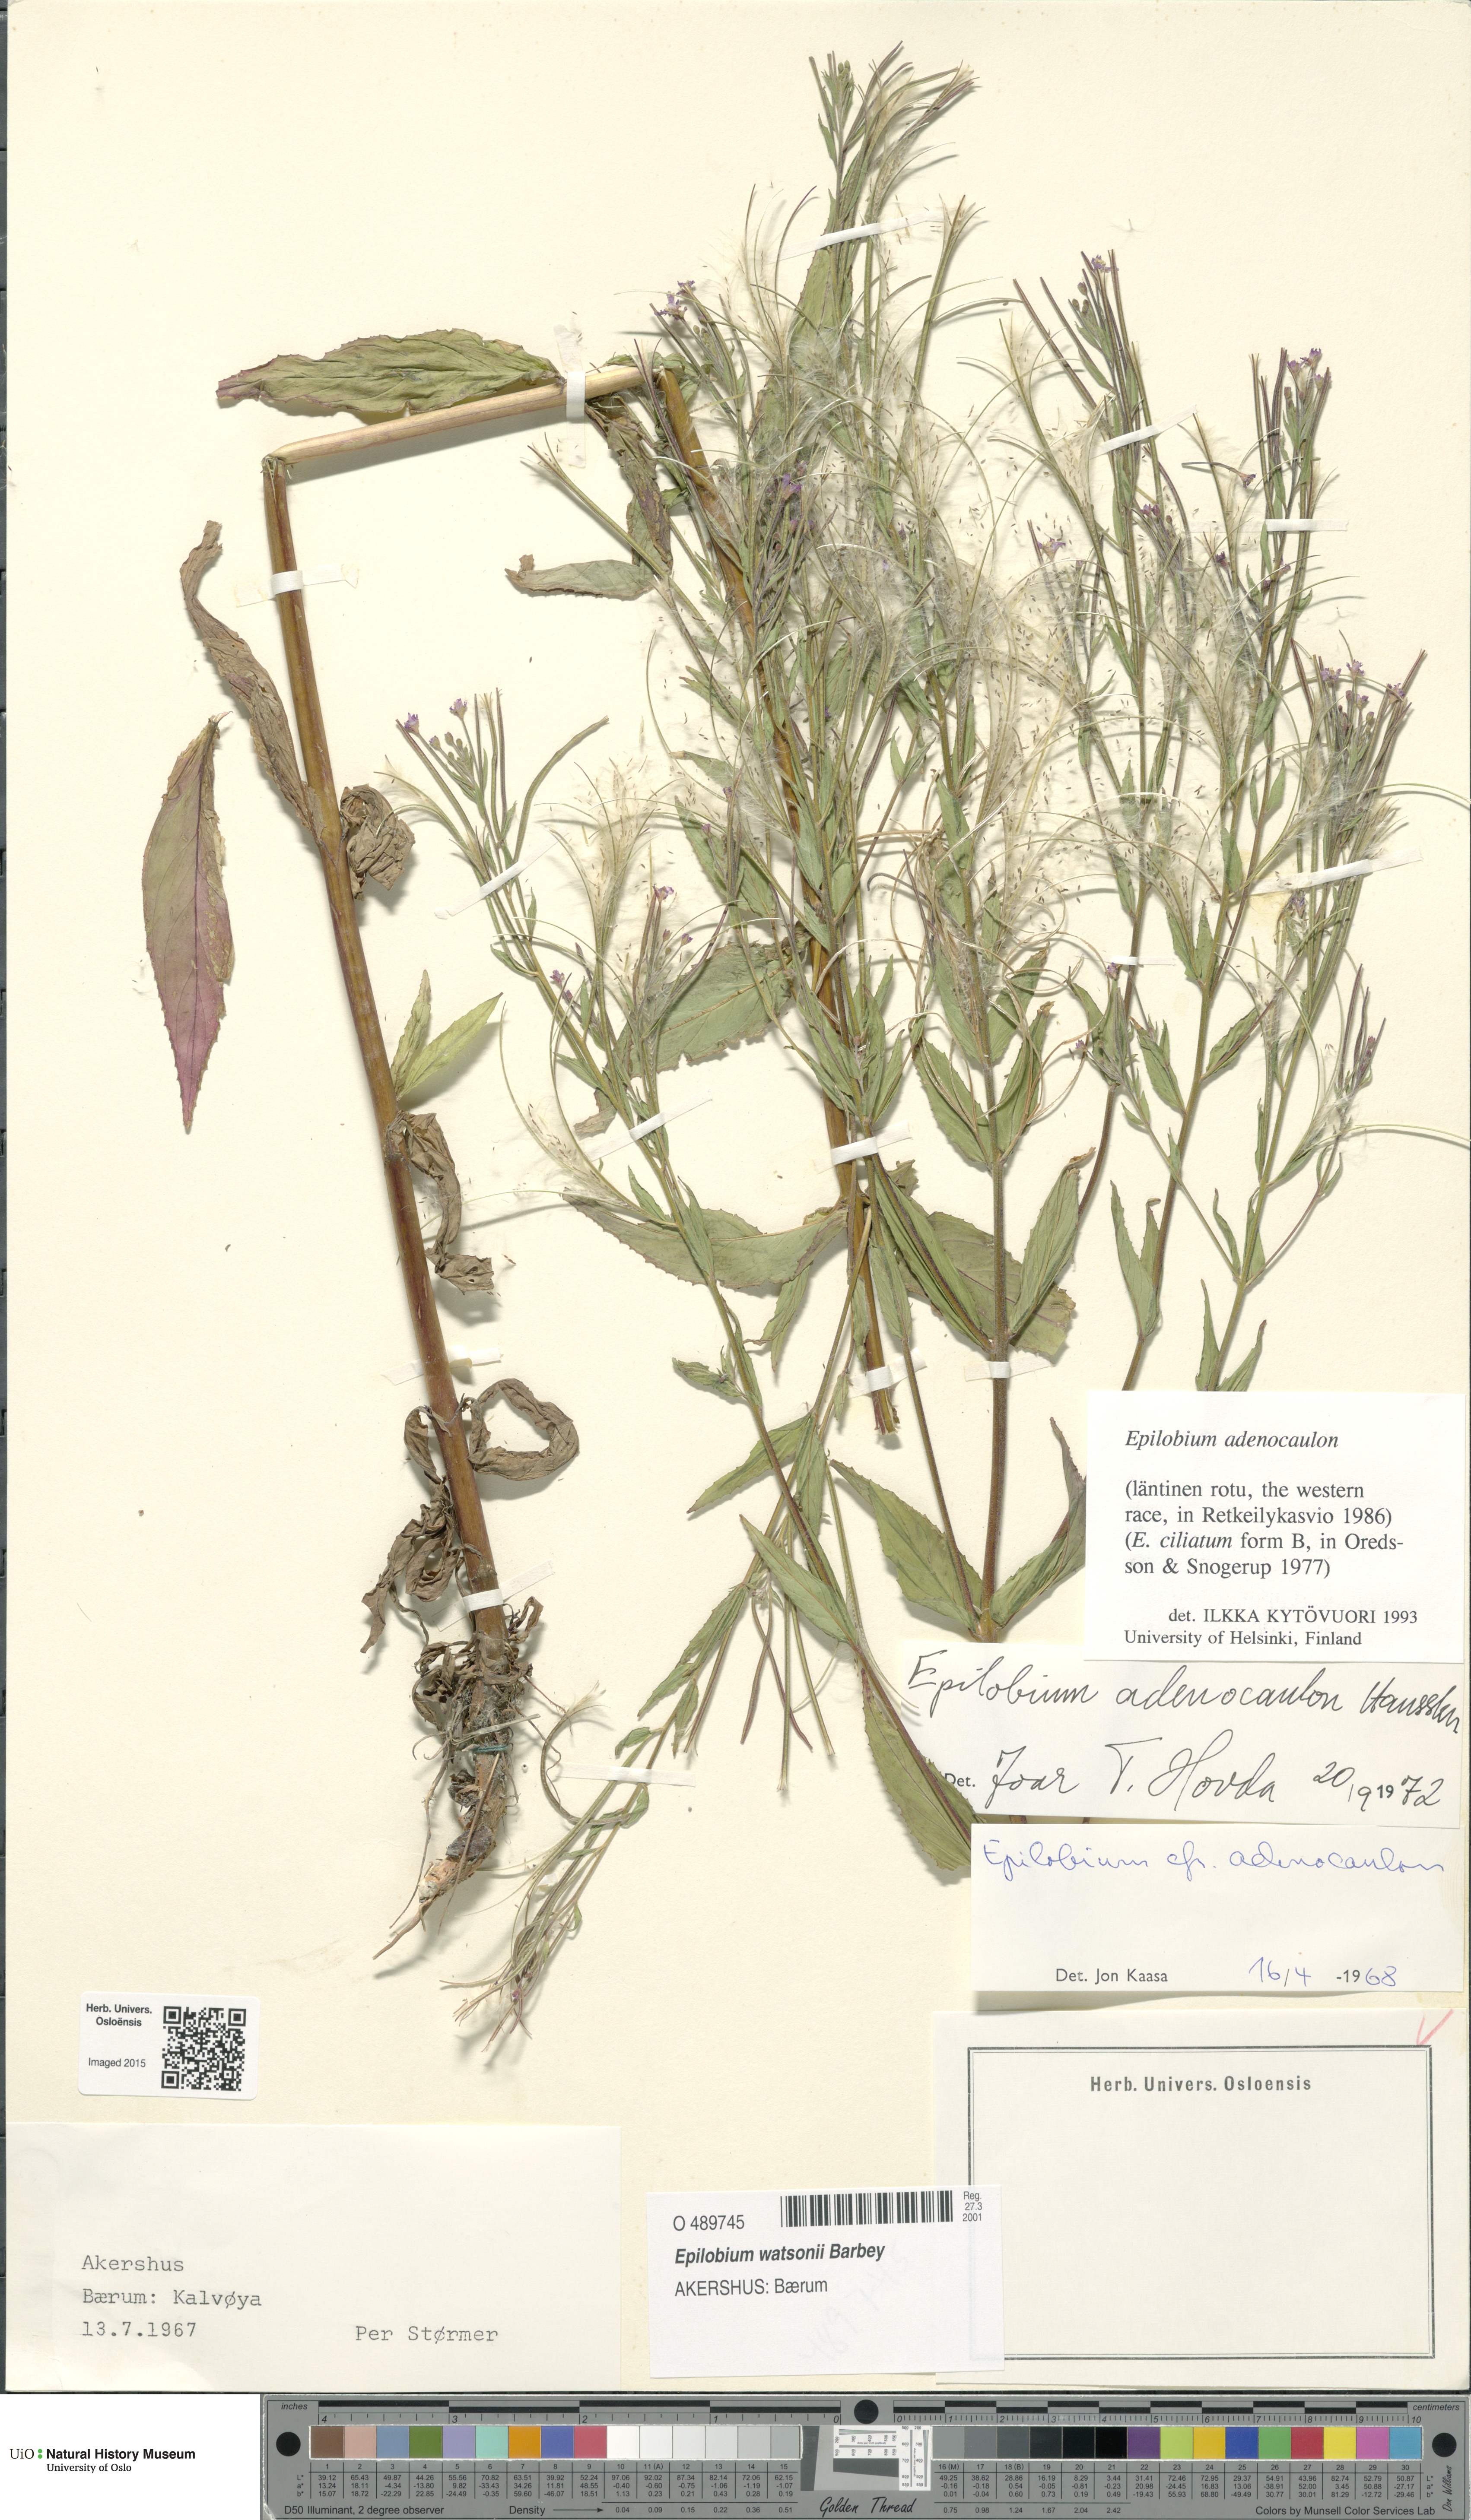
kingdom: Plantae
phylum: Tracheophyta
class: Magnoliopsida
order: Myrtales
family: Onagraceae
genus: Epilobium
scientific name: Epilobium ciliatum
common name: American willowherb
